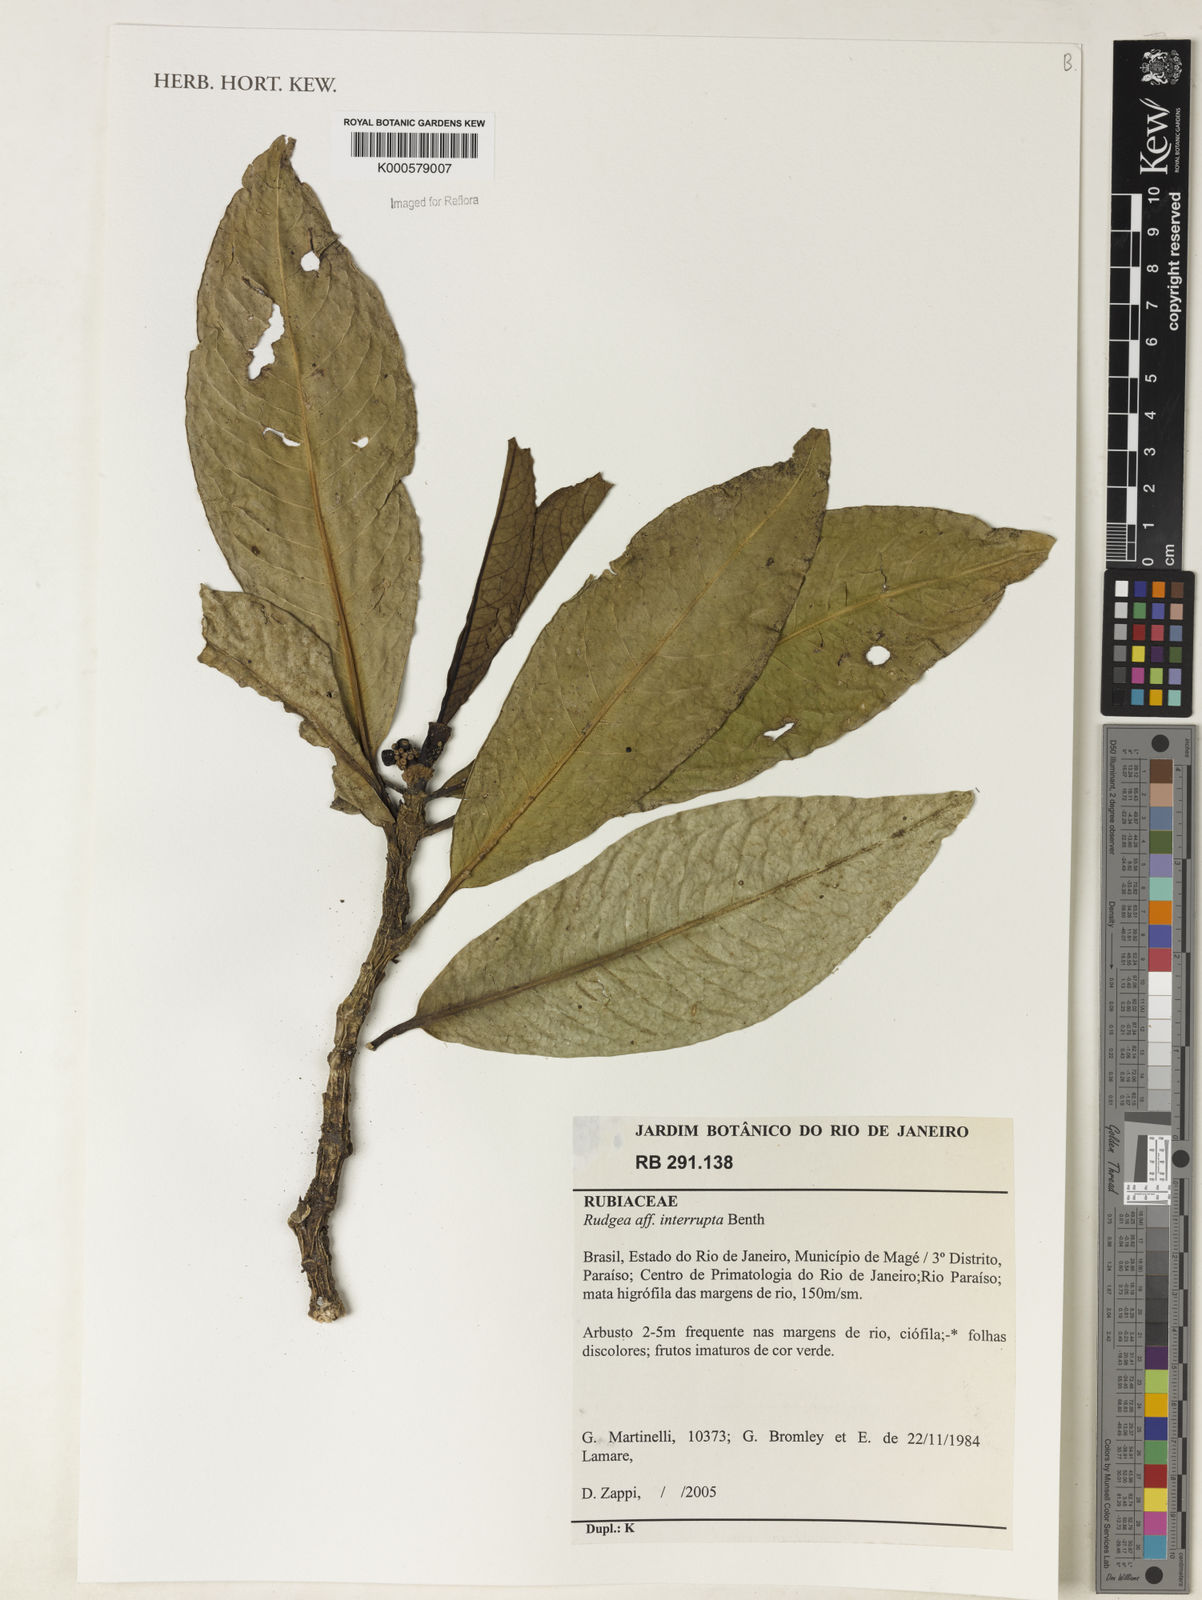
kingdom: Plantae
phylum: Tracheophyta
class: Magnoliopsida
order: Gentianales
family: Rubiaceae
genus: Rudgea
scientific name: Rudgea interrupta
